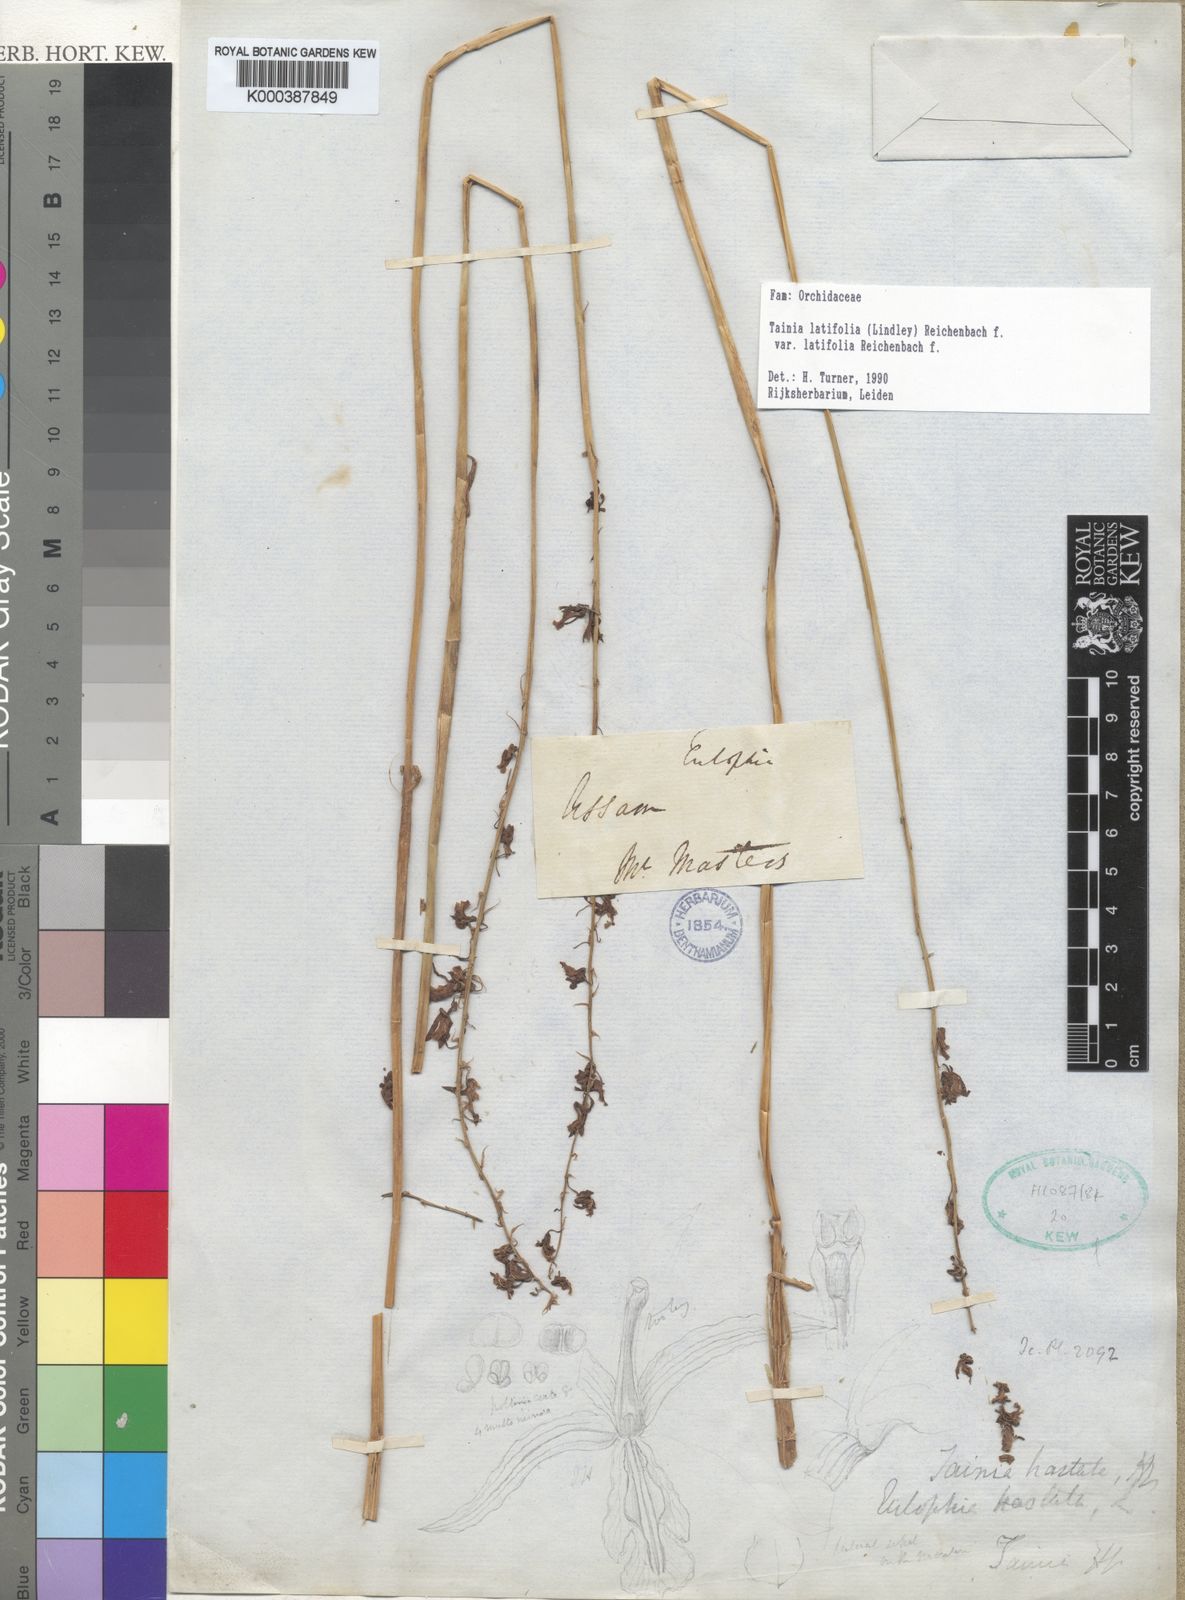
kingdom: Plantae
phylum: Tracheophyta
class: Liliopsida
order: Asparagales
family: Orchidaceae
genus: Tainia
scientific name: Tainia latifolia
